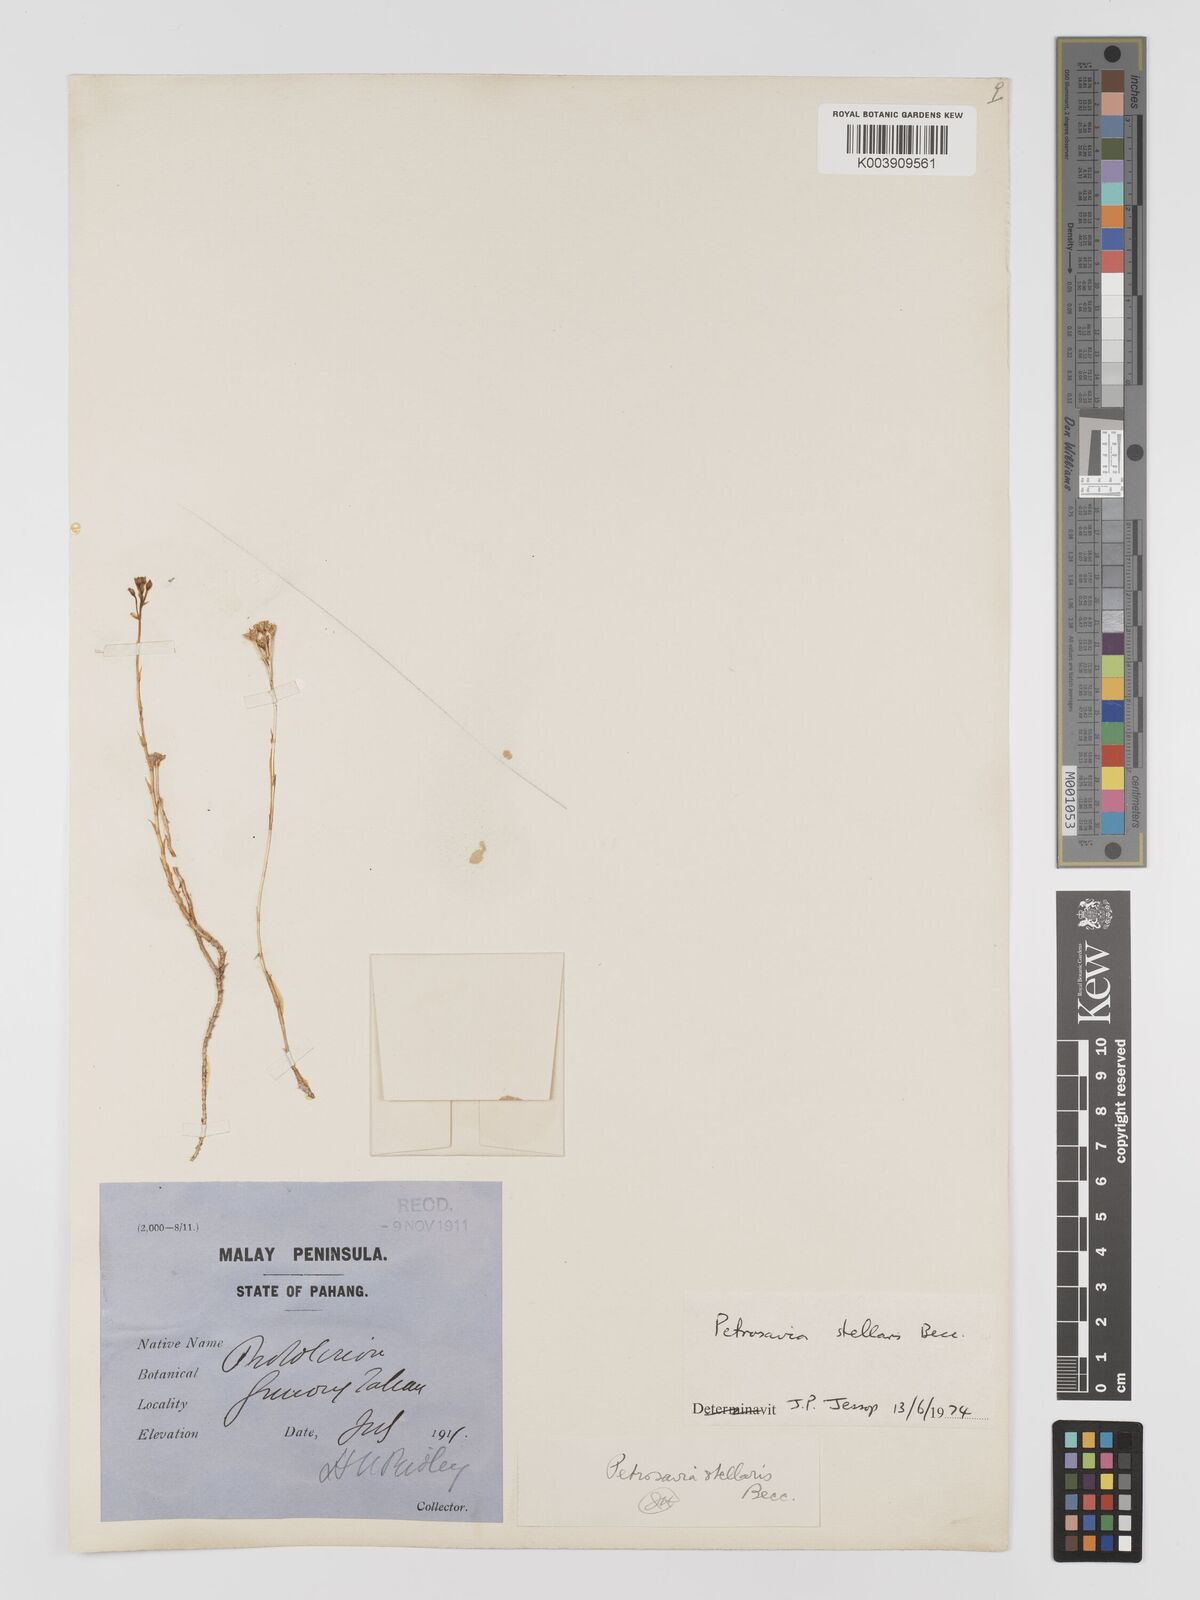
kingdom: Plantae
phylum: Tracheophyta
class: Liliopsida
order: Petrosaviales
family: Petrosaviaceae
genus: Petrosavia
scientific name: Petrosavia stellaris
